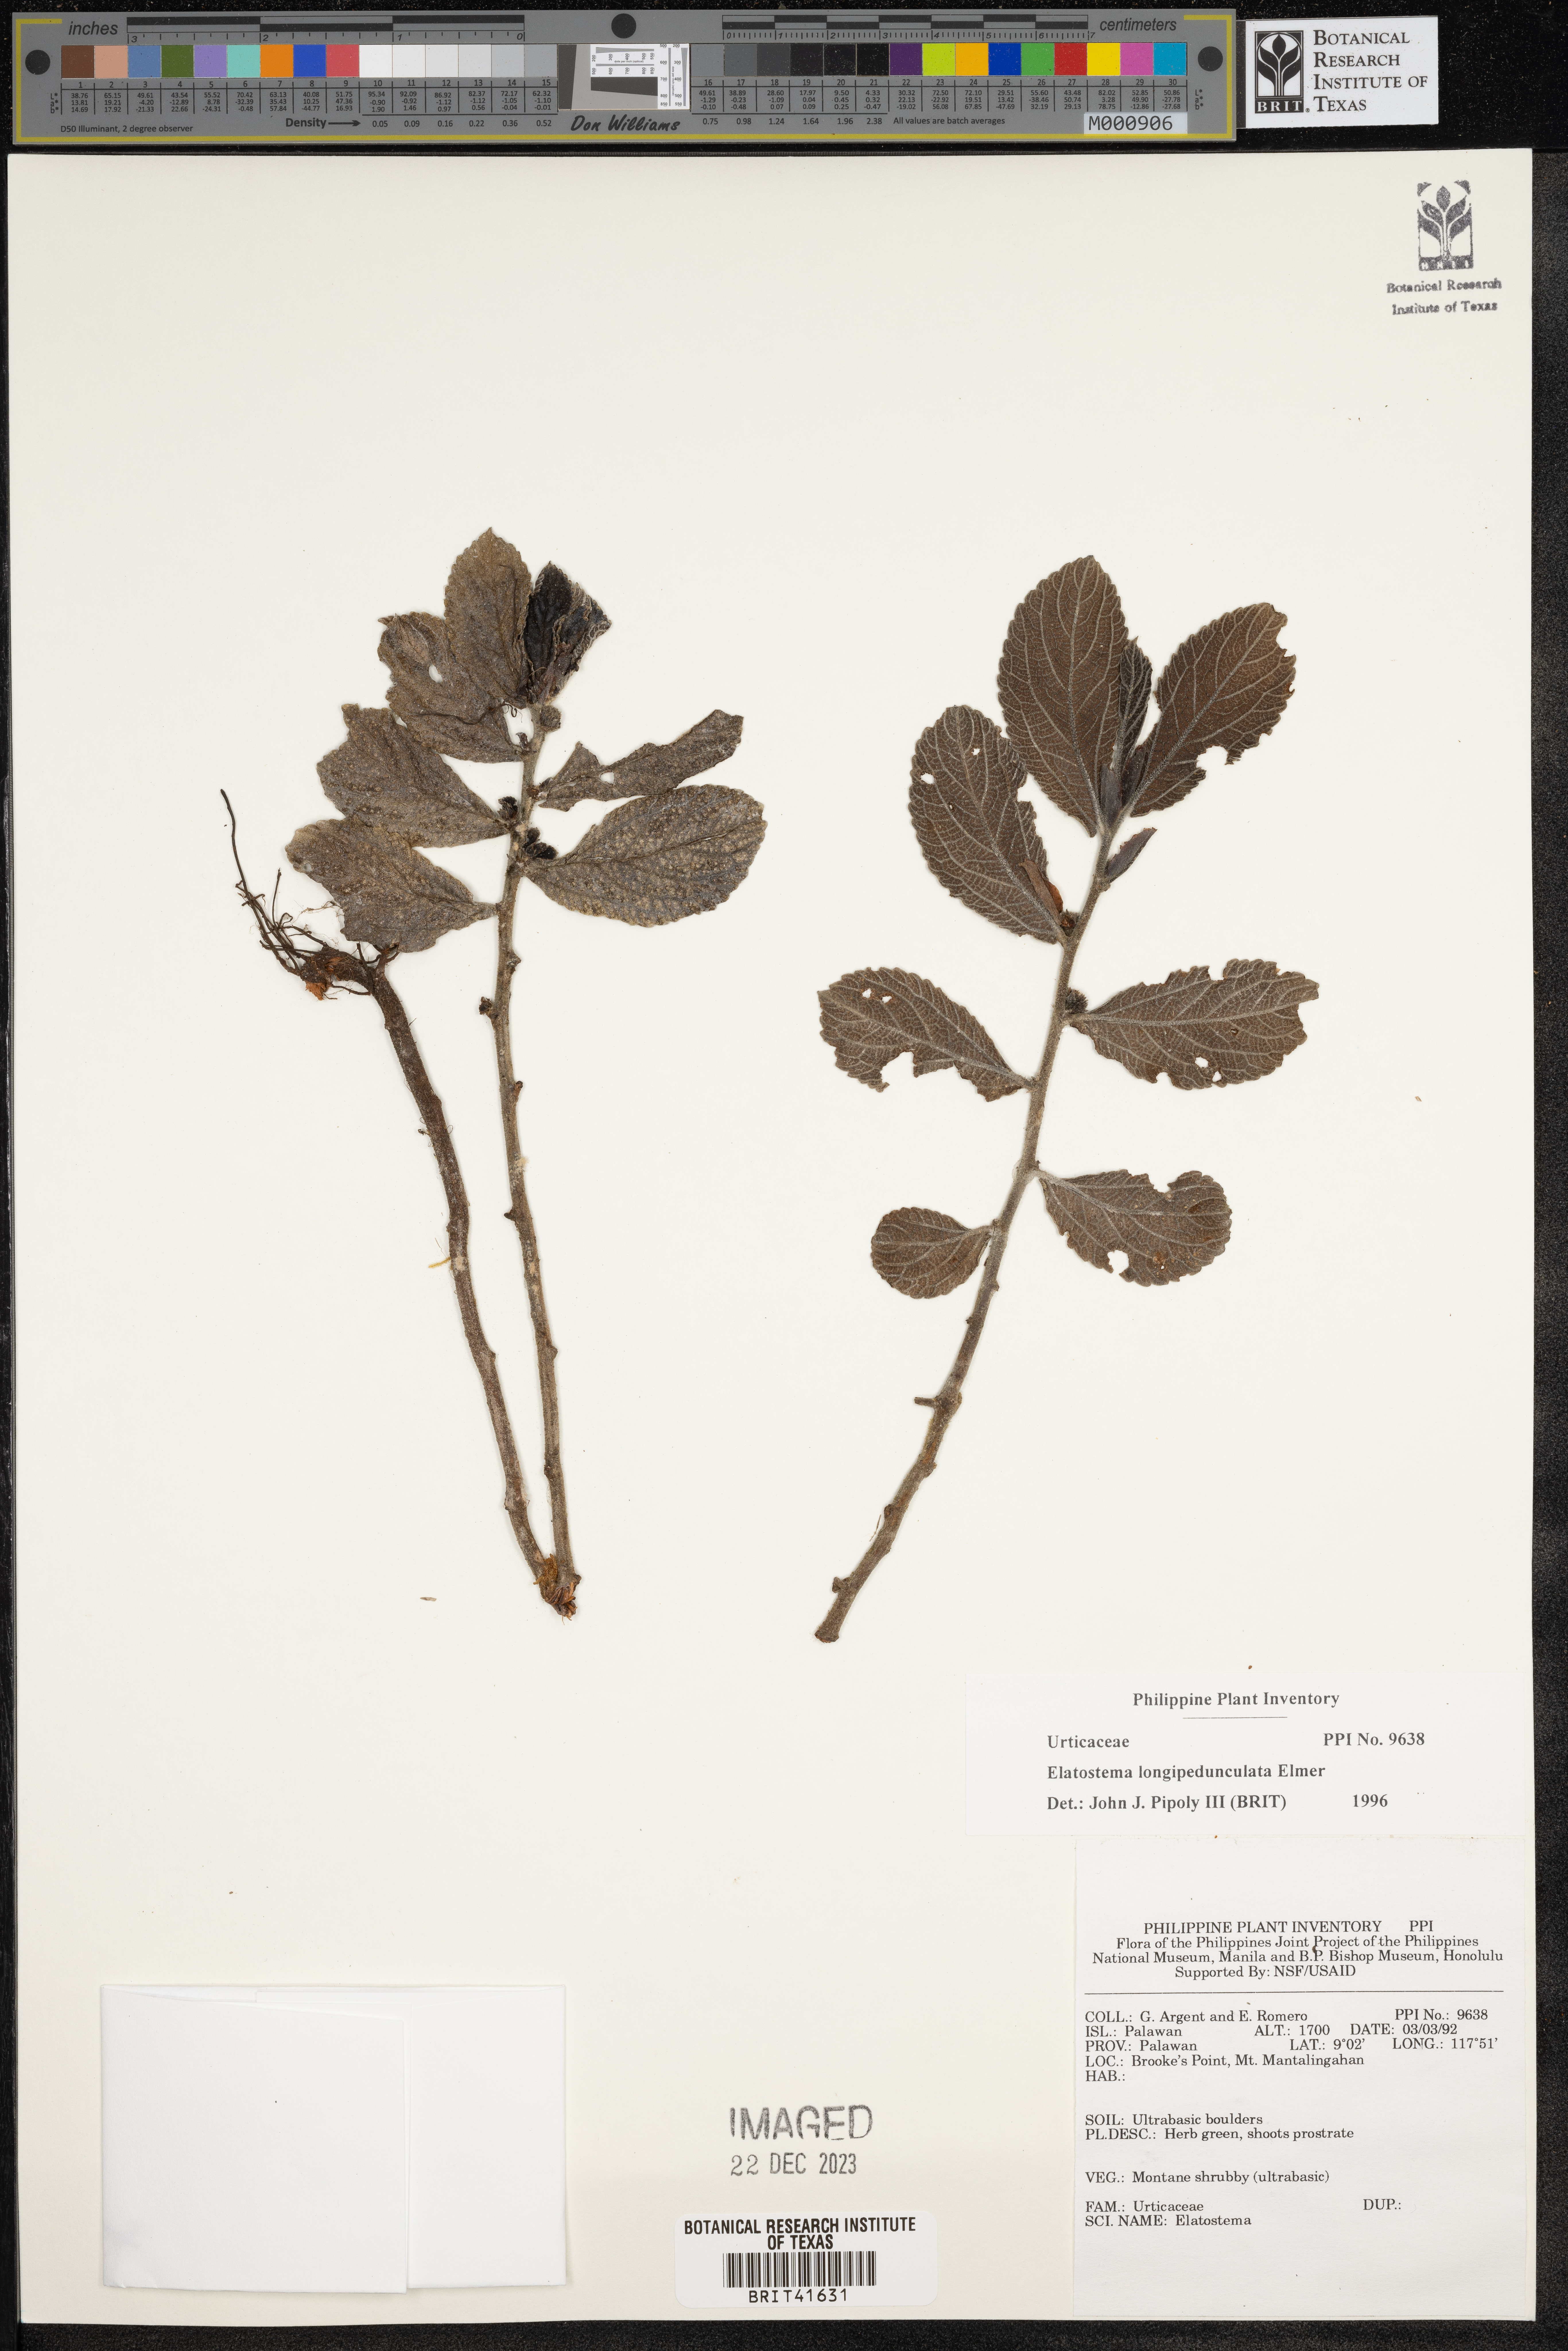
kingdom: Plantae
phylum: Tracheophyta
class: Magnoliopsida
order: Rosales
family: Urticaceae
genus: Elatostema
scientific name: Elatostema longipedunculatum
